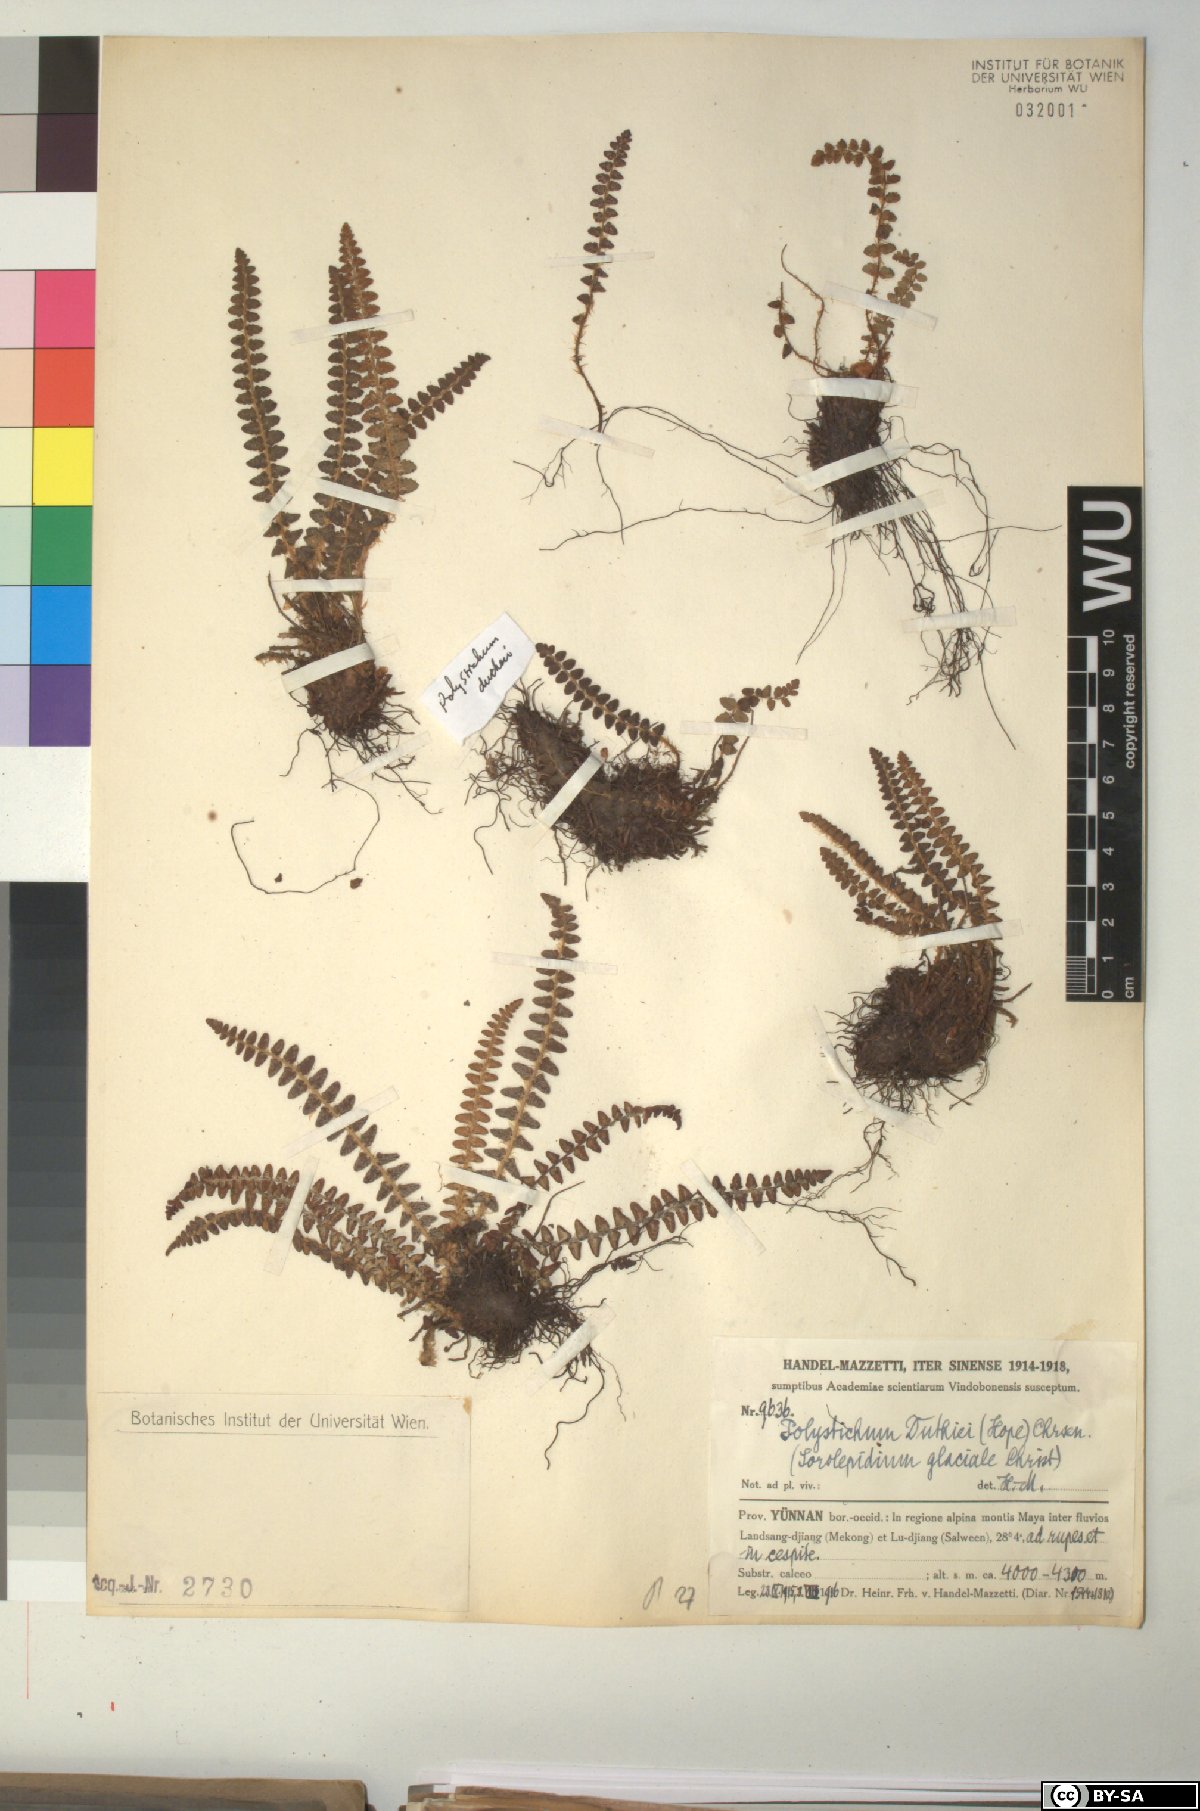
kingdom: Plantae
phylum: Tracheophyta
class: Polypodiopsida
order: Polypodiales
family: Dryopteridaceae
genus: Polystichum
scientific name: Polystichum duthiei
